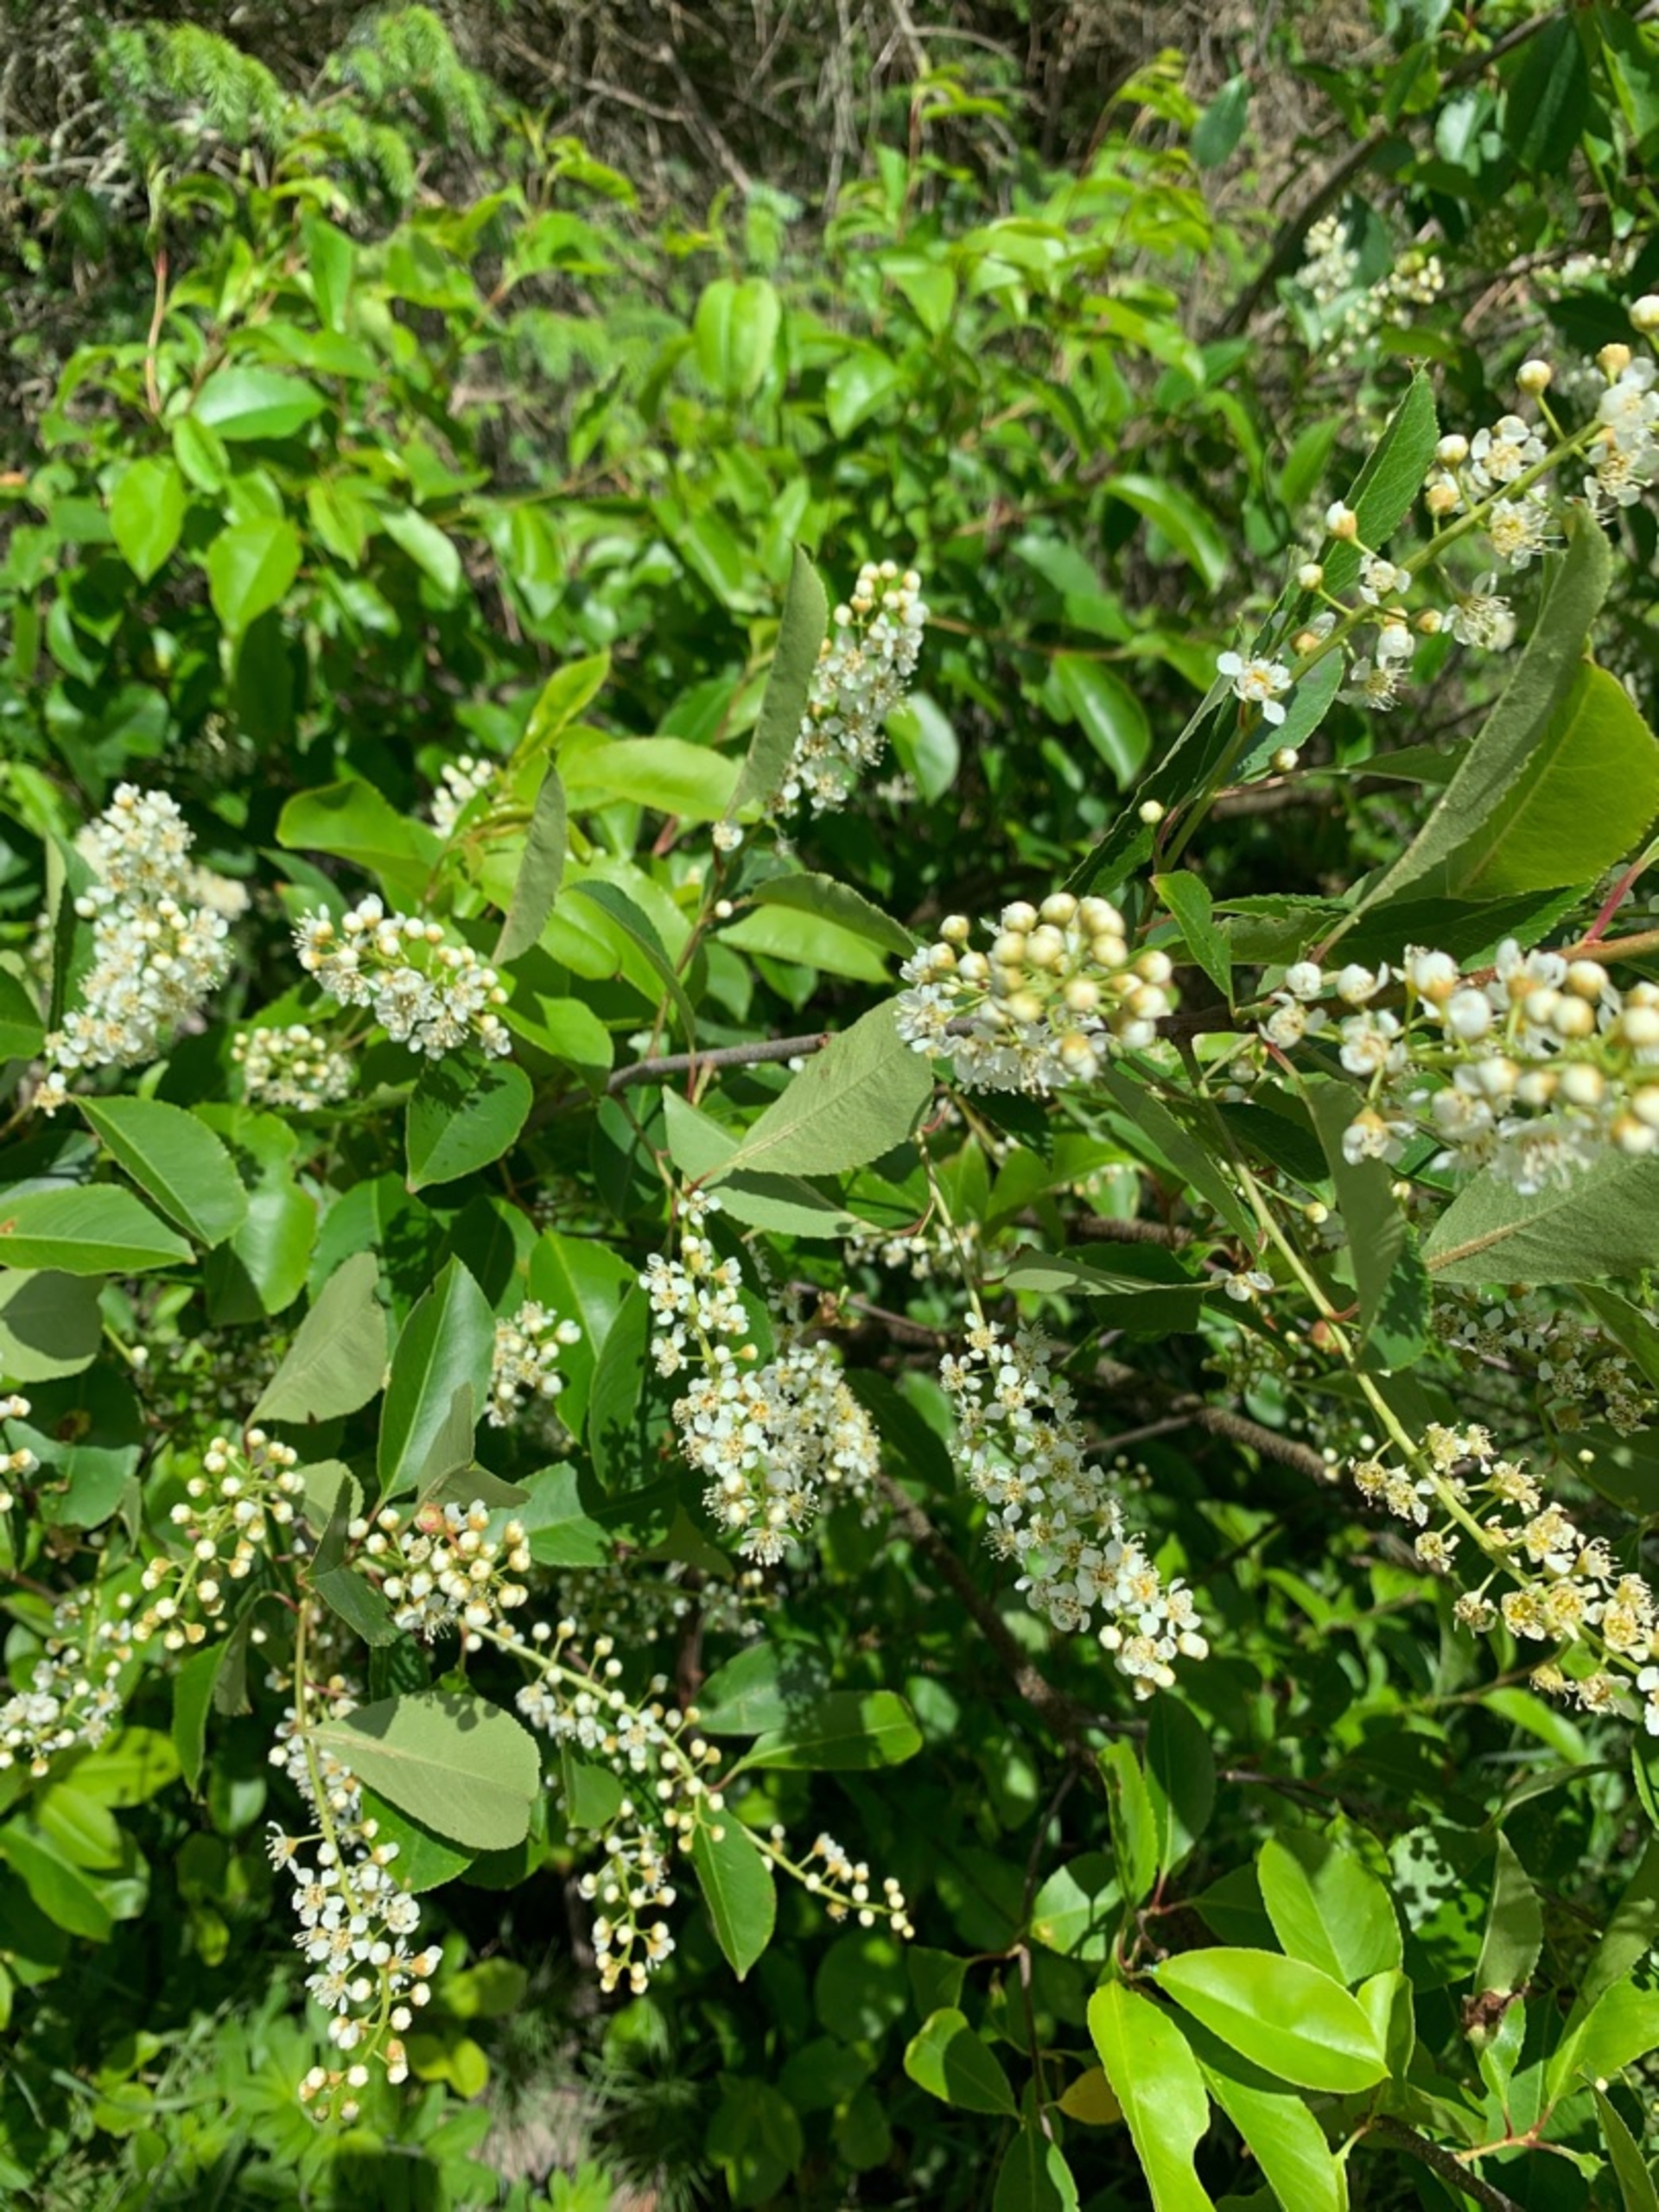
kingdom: Plantae
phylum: Tracheophyta
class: Magnoliopsida
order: Rosales
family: Rosaceae
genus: Prunus
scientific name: Prunus serotina
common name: Glansbladet hæg
